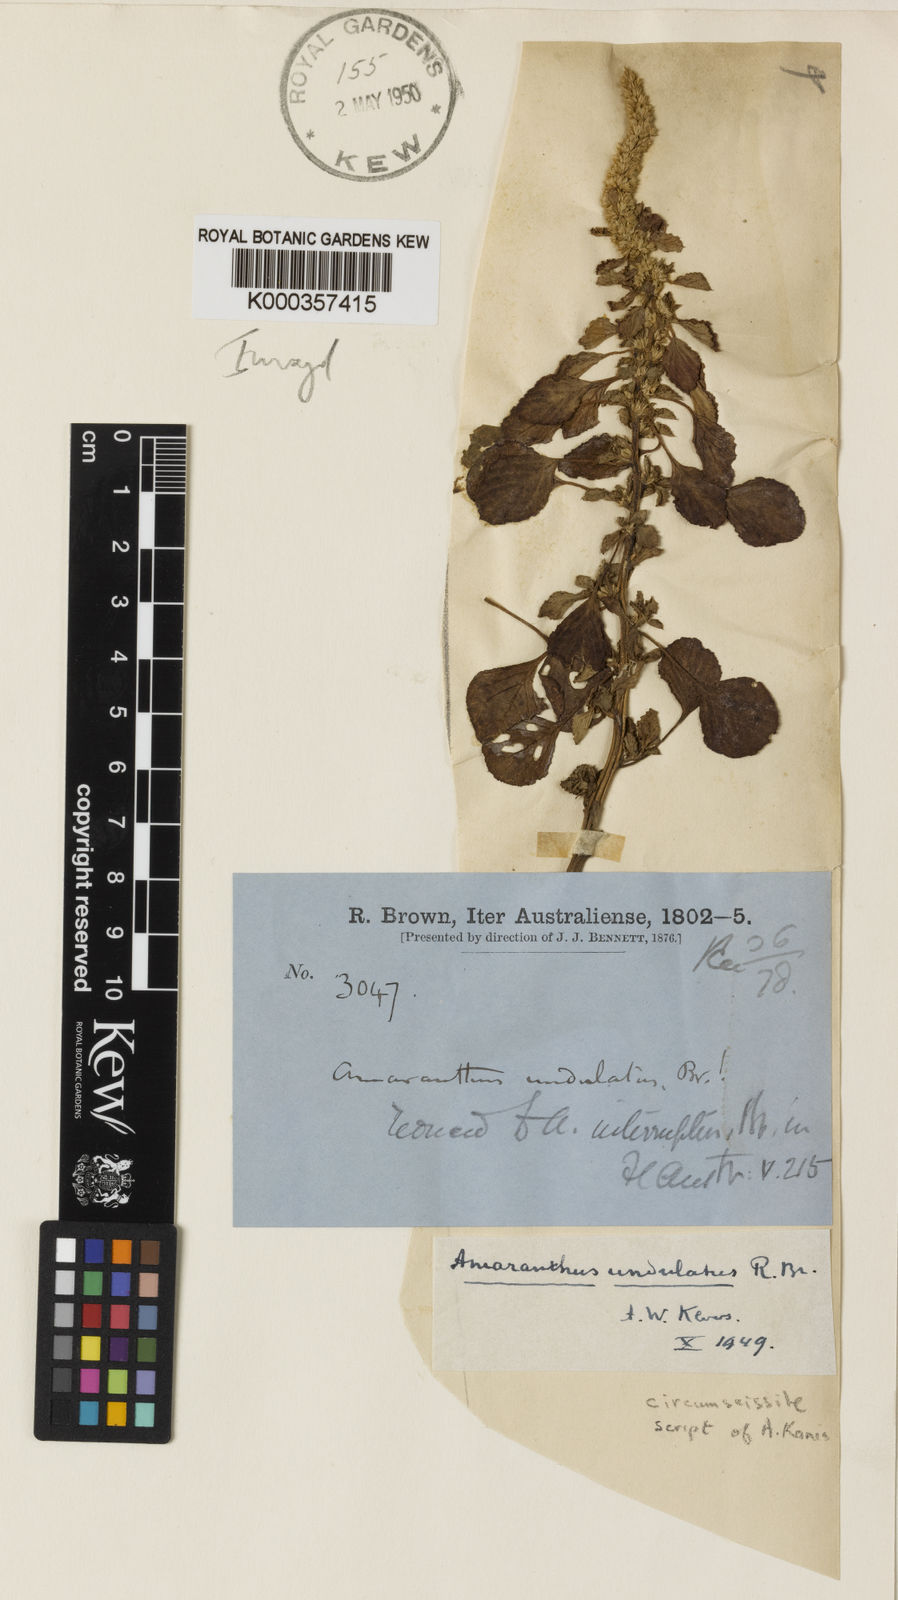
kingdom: Plantae
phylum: Tracheophyta
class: Magnoliopsida
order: Caryophyllales
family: Amaranthaceae
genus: Amaranthus
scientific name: Amaranthus undulatus
